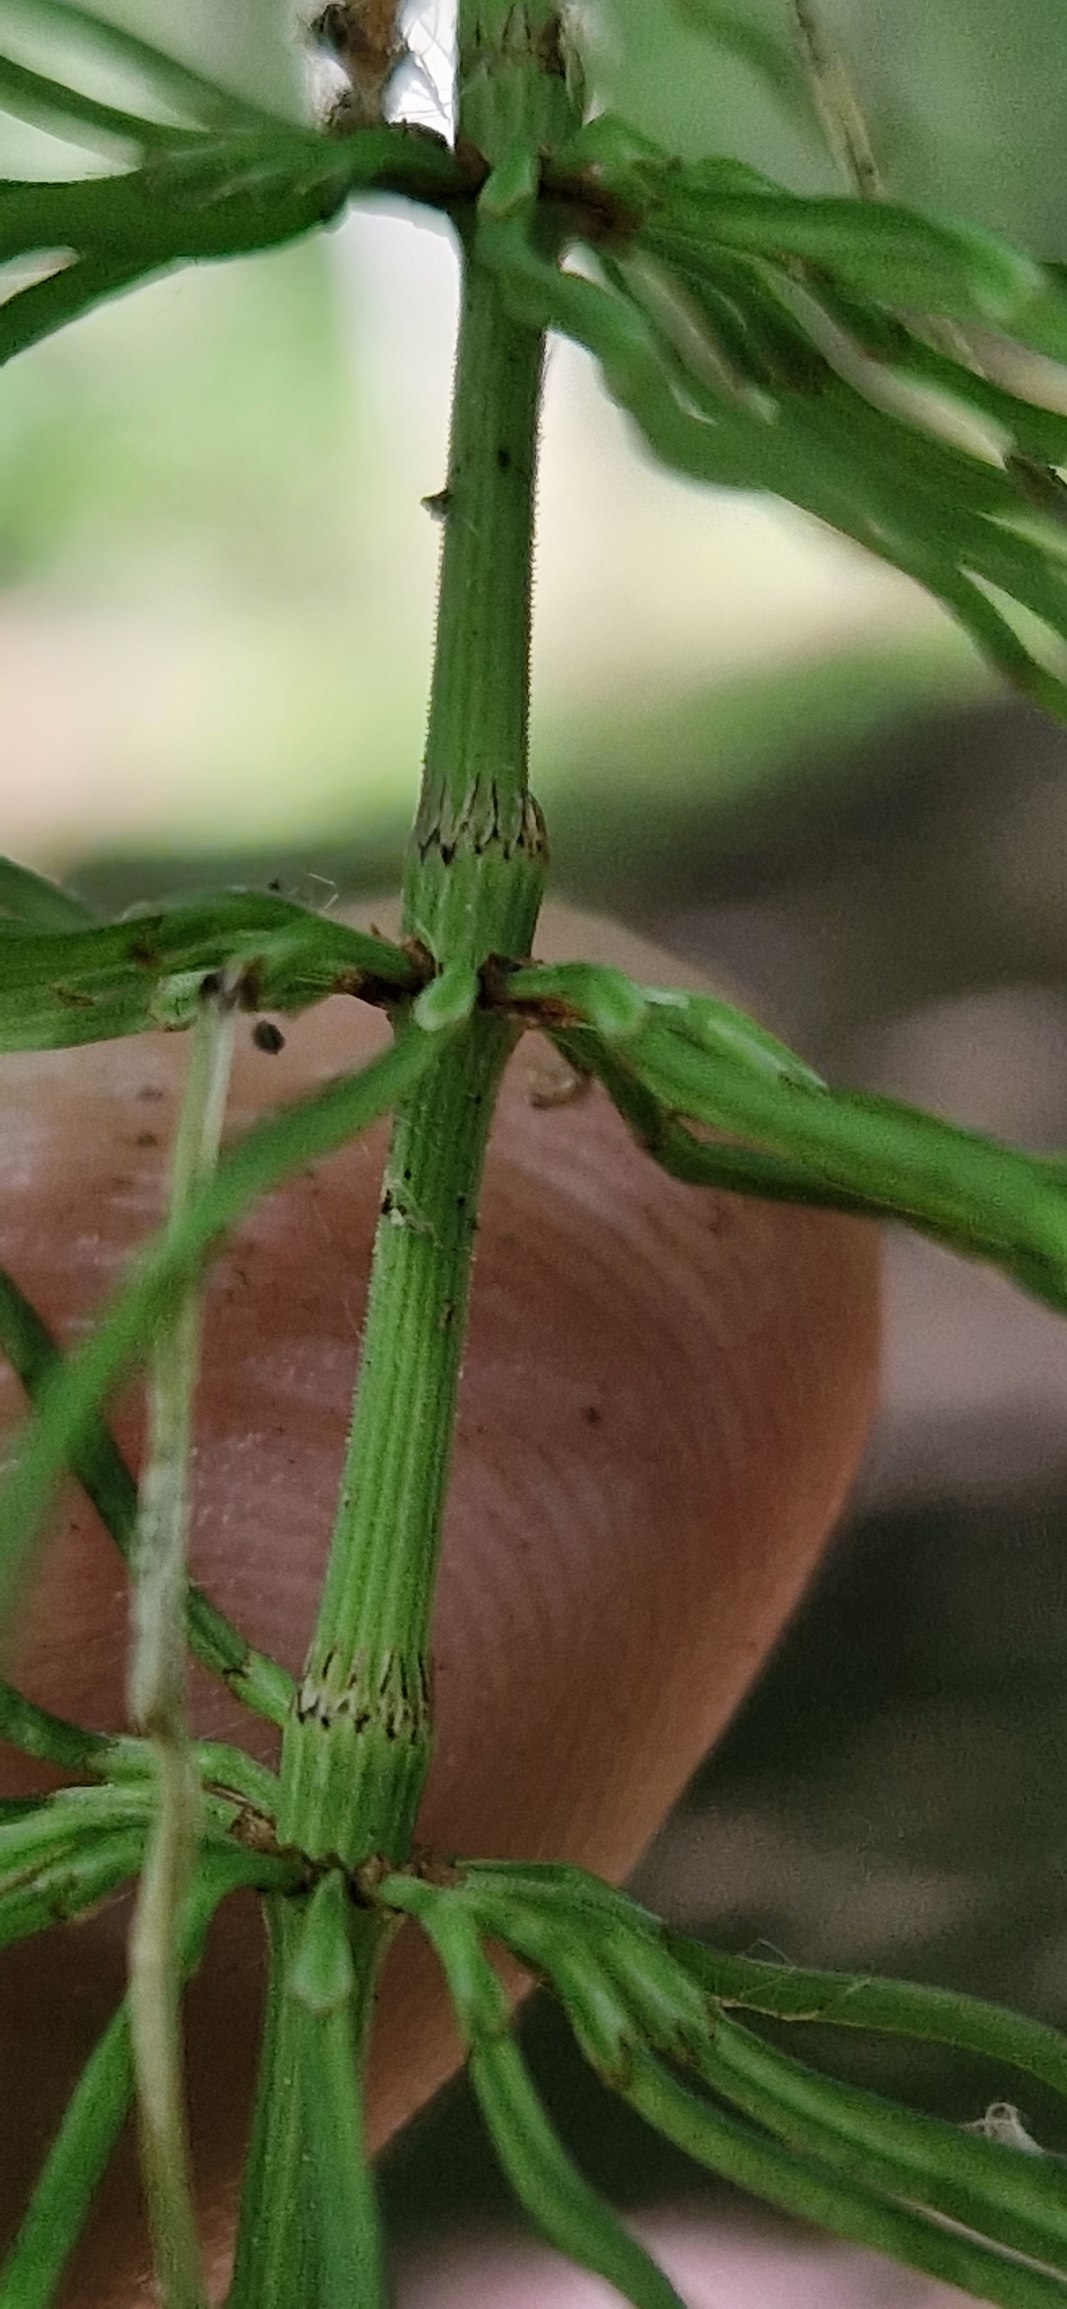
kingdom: Plantae
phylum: Tracheophyta
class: Polypodiopsida
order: Equisetales
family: Equisetaceae
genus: Equisetum
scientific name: Equisetum pratense
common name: Lund-padderok
